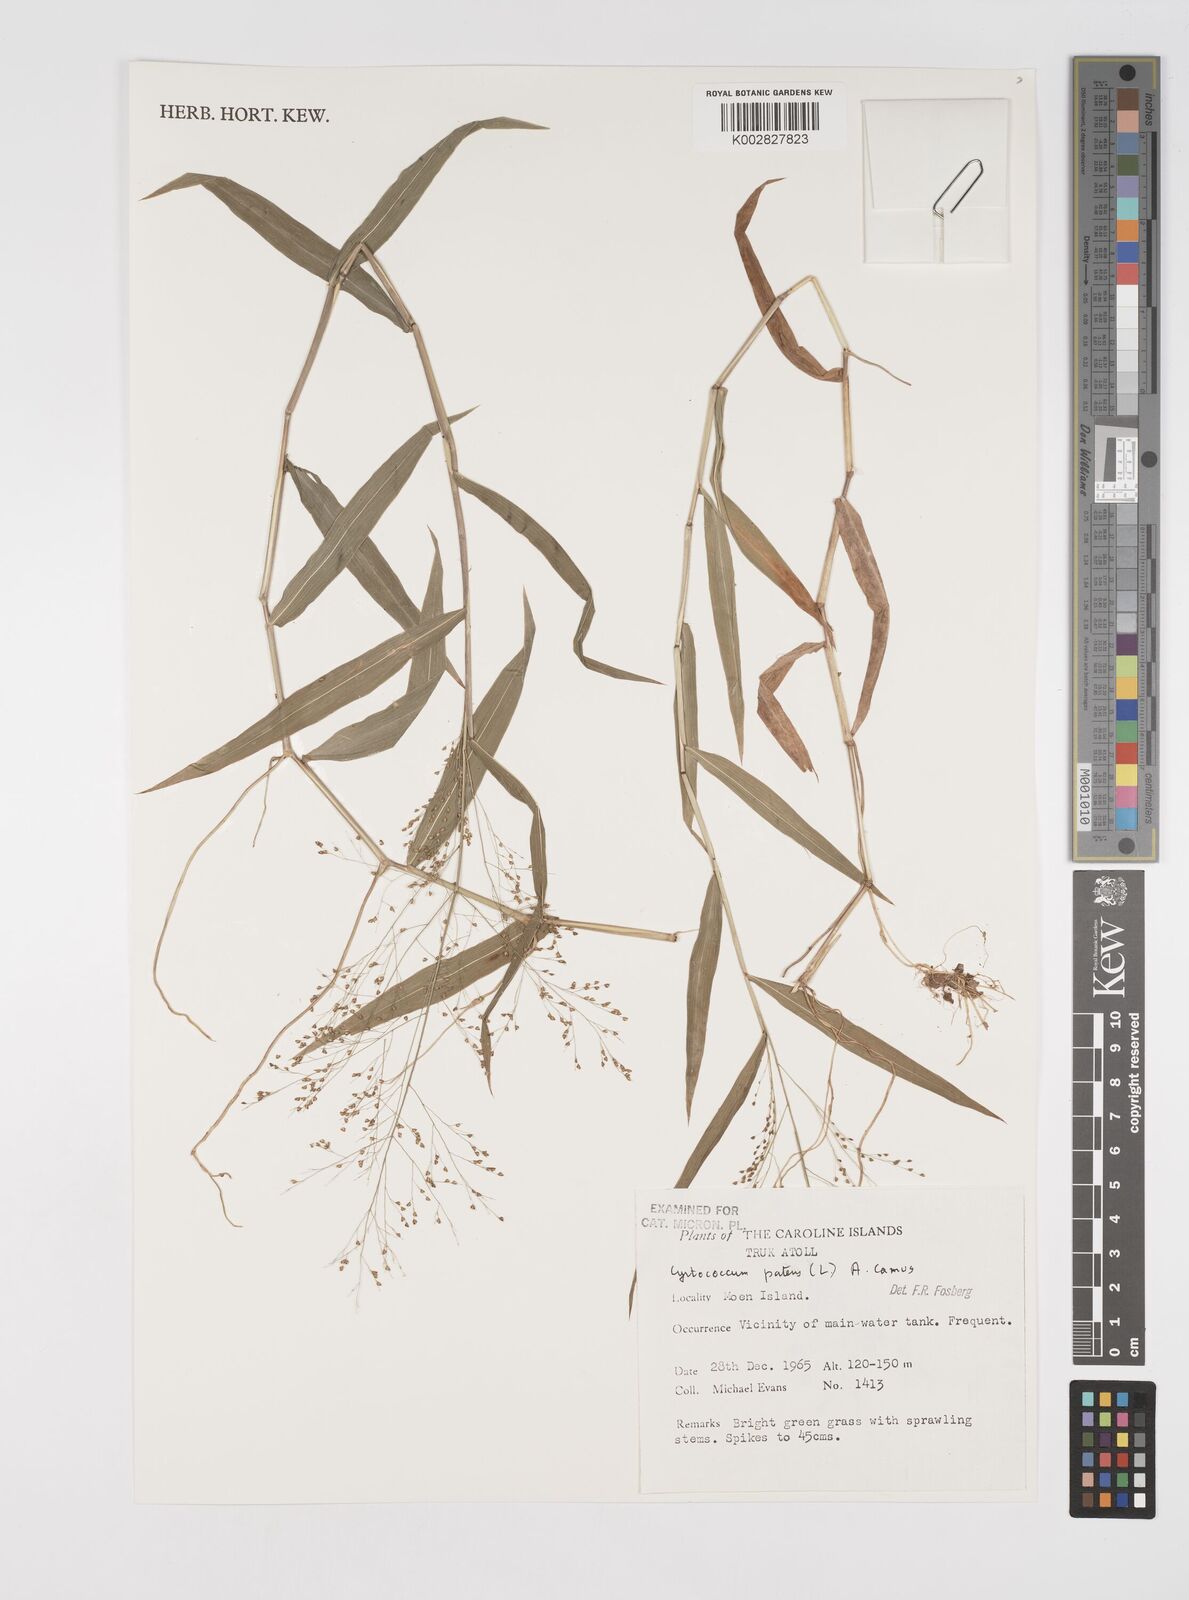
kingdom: Plantae
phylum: Tracheophyta
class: Liliopsida
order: Poales
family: Poaceae
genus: Cyrtococcum
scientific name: Cyrtococcum patens
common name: Broad-leaved bowgrass
